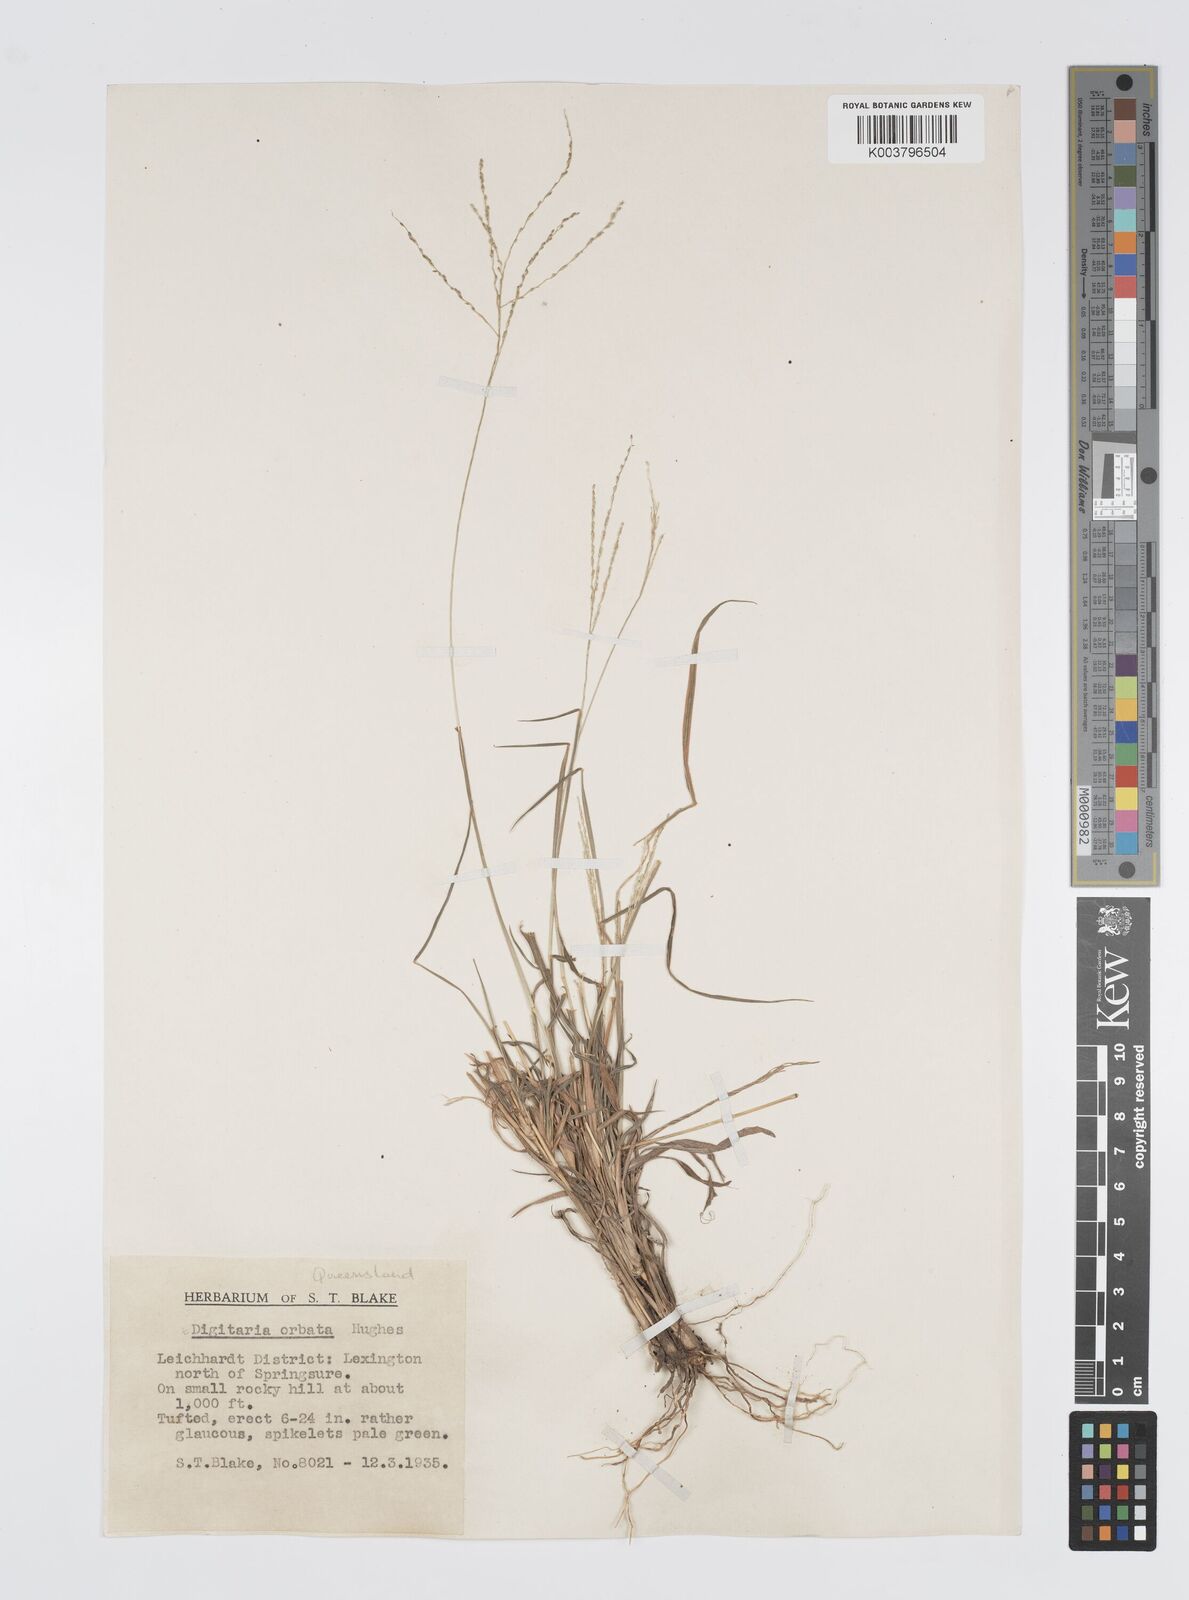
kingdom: Plantae
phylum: Tracheophyta
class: Liliopsida
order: Poales
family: Poaceae
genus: Digitaria
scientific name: Digitaria orbata
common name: Crabgrass
